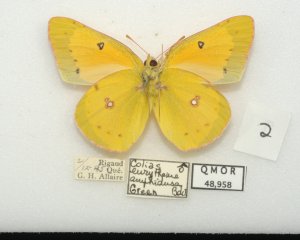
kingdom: Animalia
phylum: Arthropoda
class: Insecta
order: Lepidoptera
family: Pieridae
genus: Colias
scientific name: Colias eurytheme
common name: Orange Sulphur
